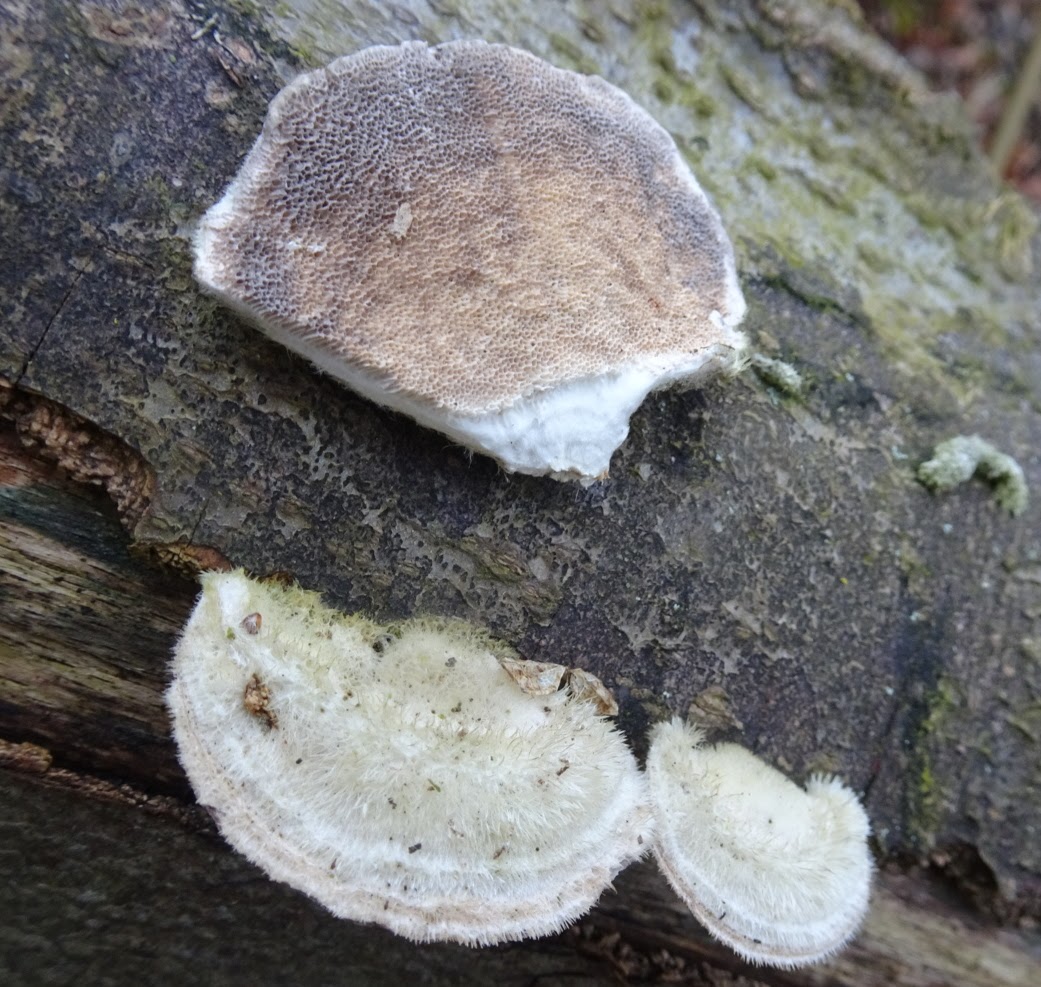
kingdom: Fungi
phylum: Basidiomycota
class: Agaricomycetes
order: Polyporales
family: Polyporaceae
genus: Trametes
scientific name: Trametes hirsuta
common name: håret læderporesvamp
